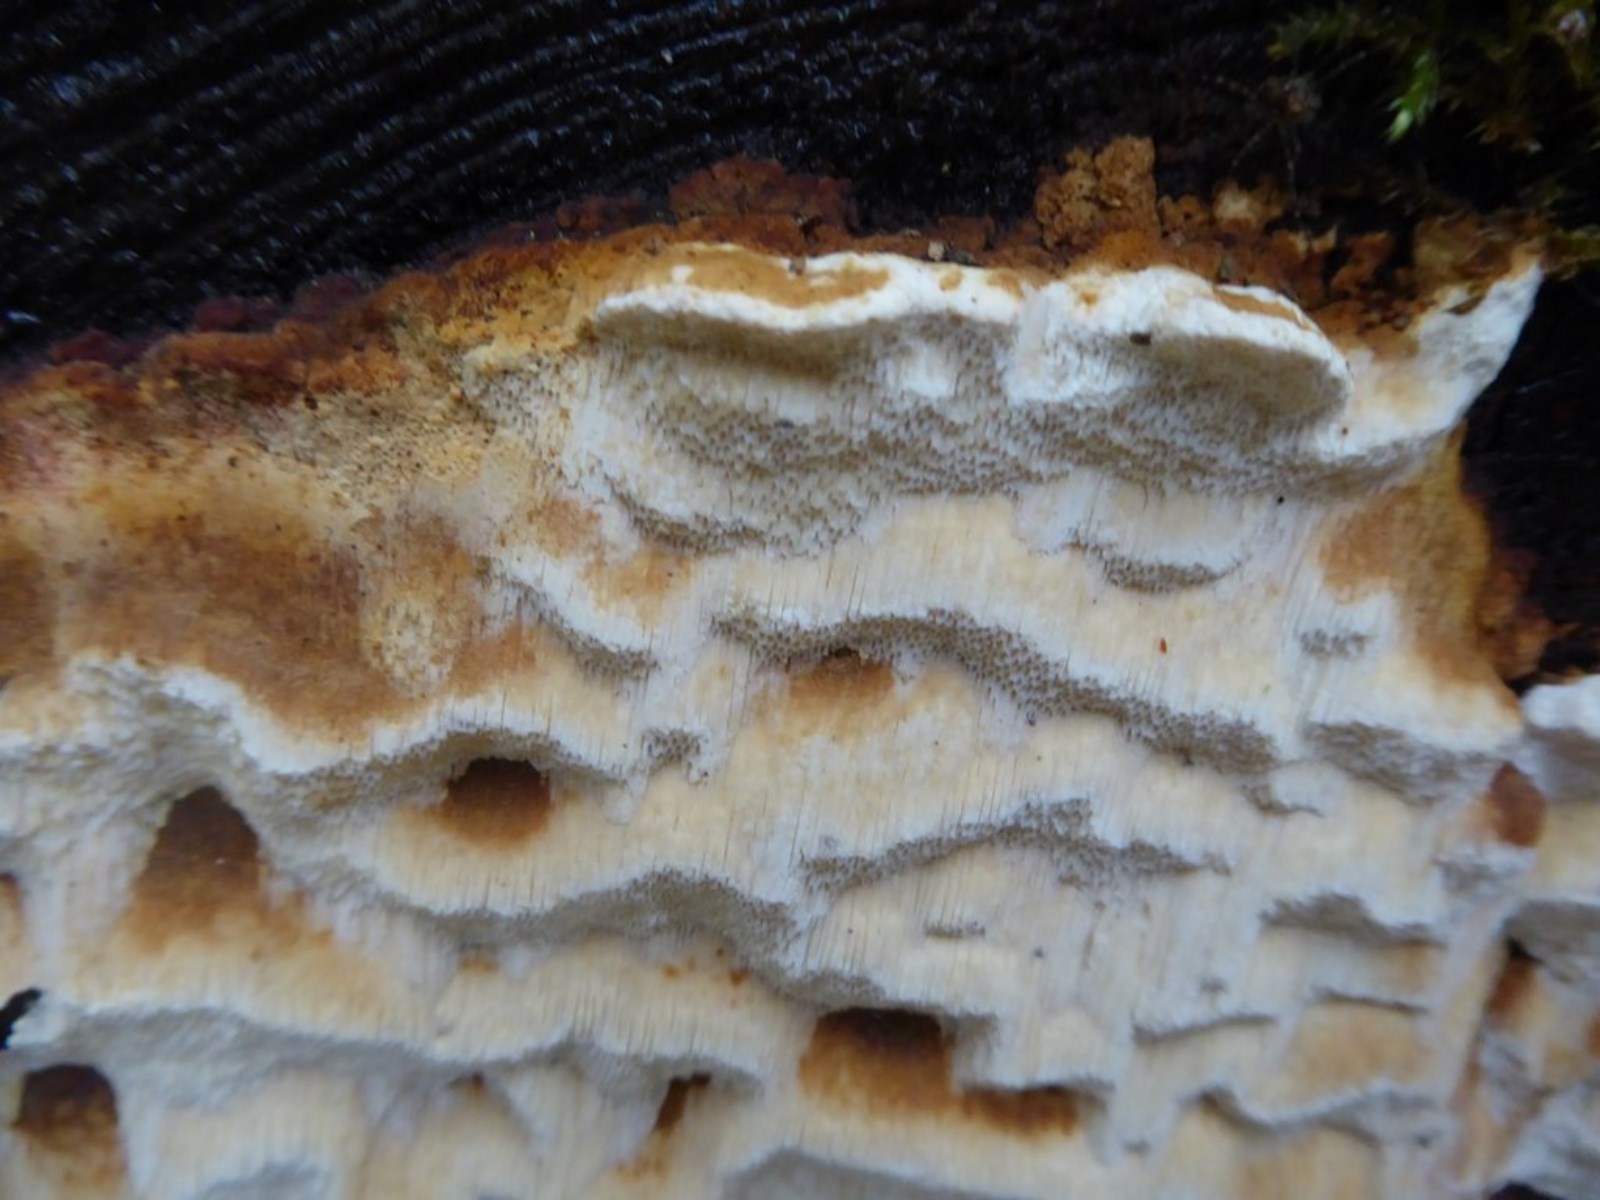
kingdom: Fungi
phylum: Basidiomycota
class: Agaricomycetes
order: Polyporales
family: Fomitopsidaceae
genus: Neoantrodia
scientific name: Neoantrodia serialis
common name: række-sejporesvamp
